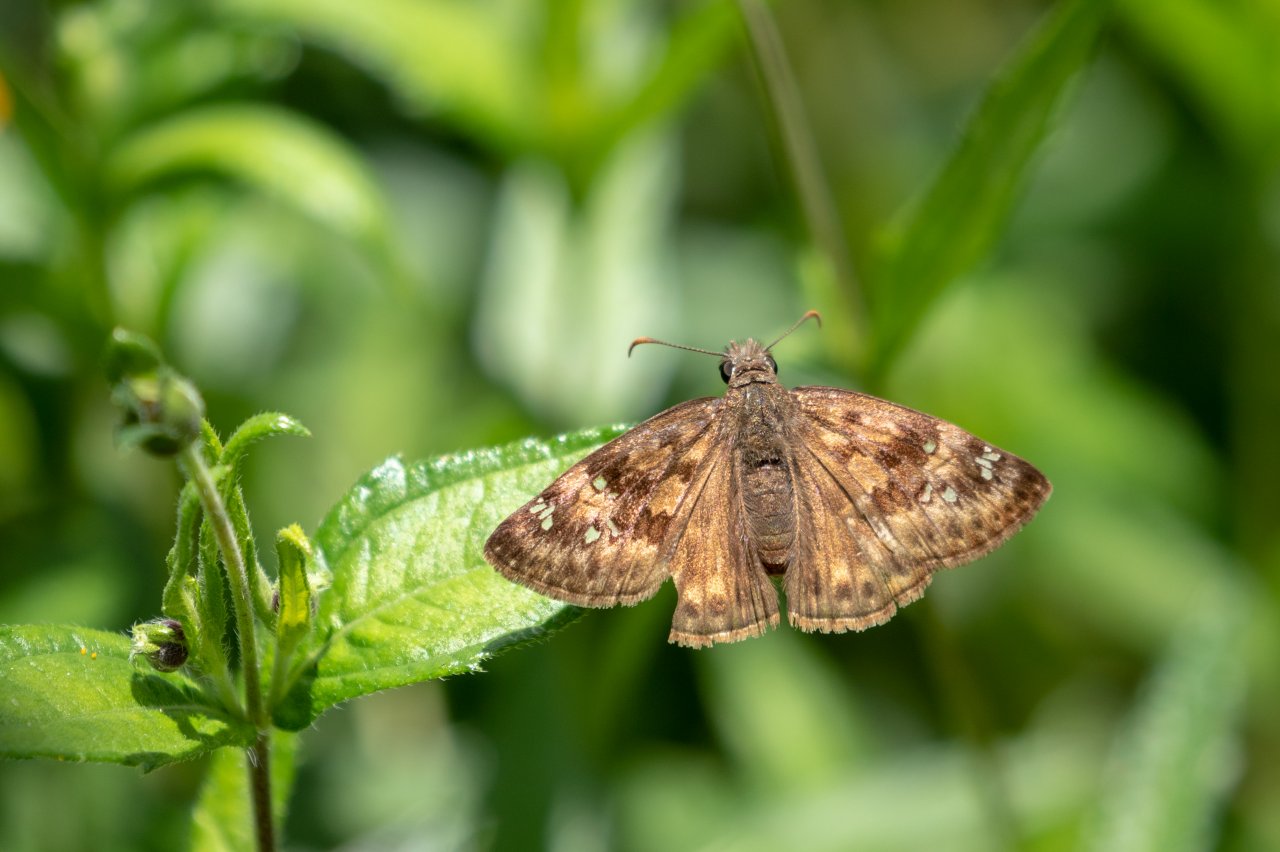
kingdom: Animalia
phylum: Arthropoda
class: Insecta
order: Lepidoptera
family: Hesperiidae
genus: Erynnis
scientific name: Erynnis
